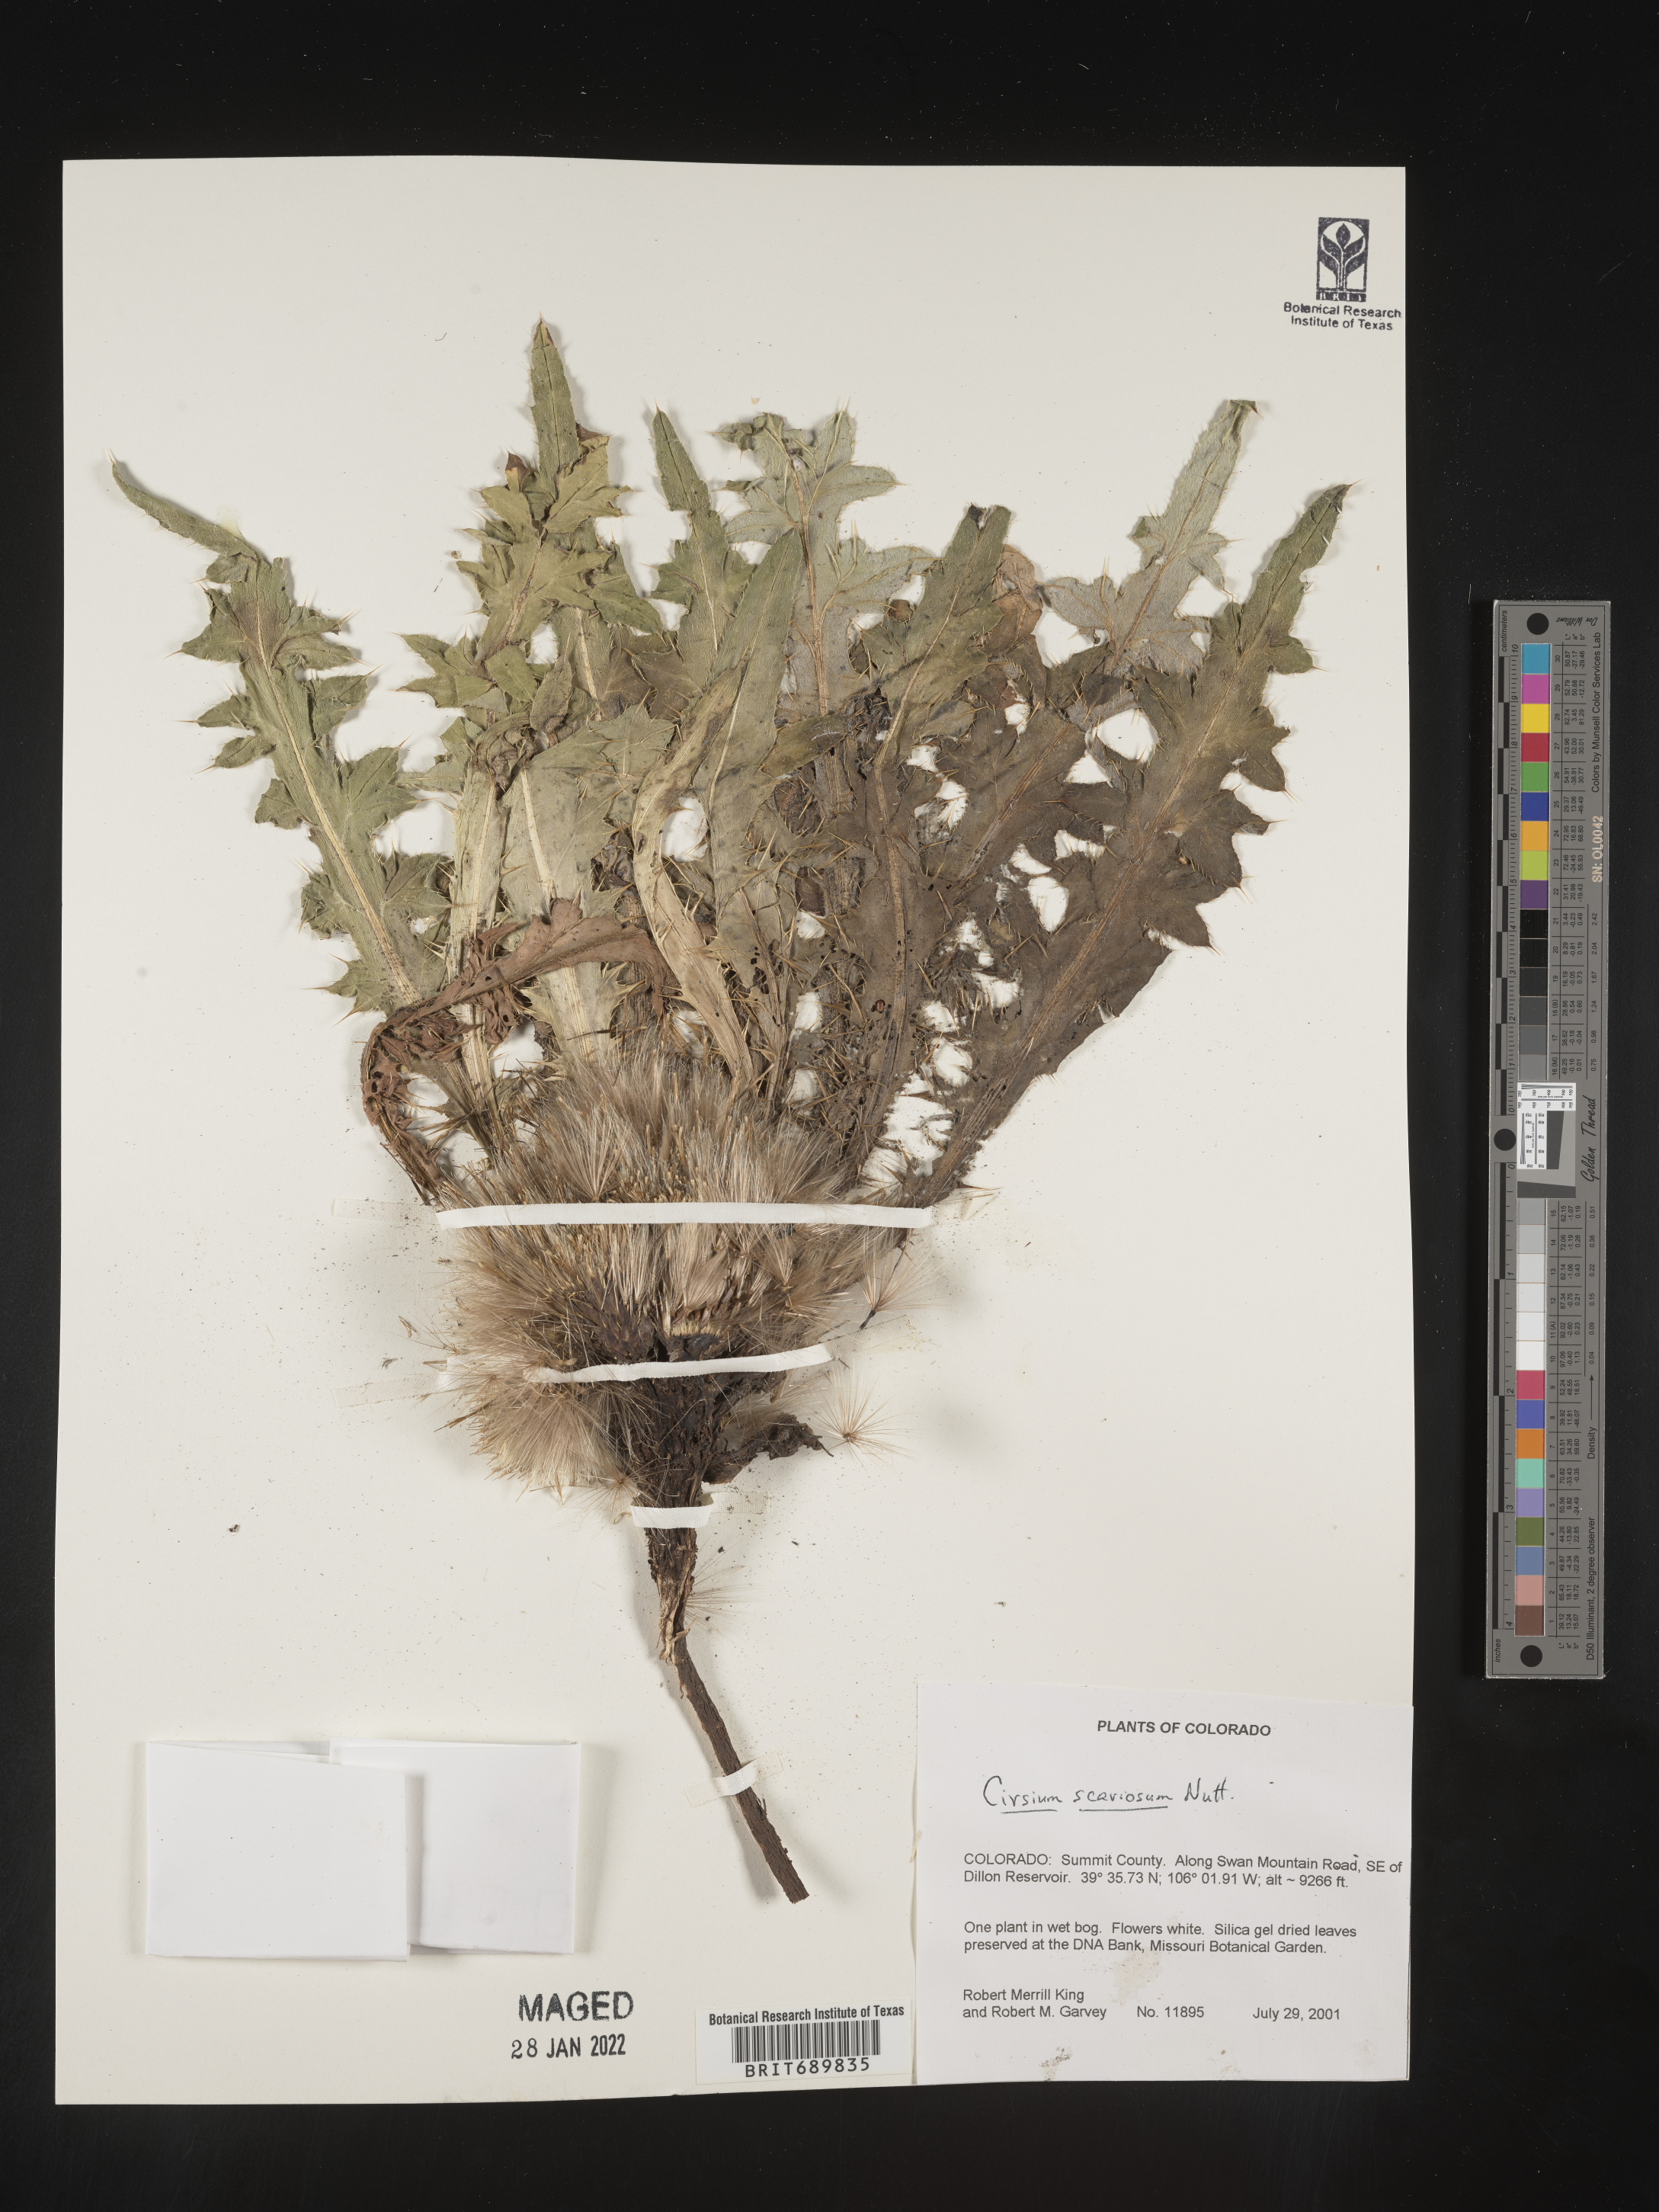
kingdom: Plantae
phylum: Tracheophyta
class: Magnoliopsida
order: Asterales
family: Asteraceae
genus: Cirsium
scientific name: Cirsium scariosum
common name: Meadow thistle
